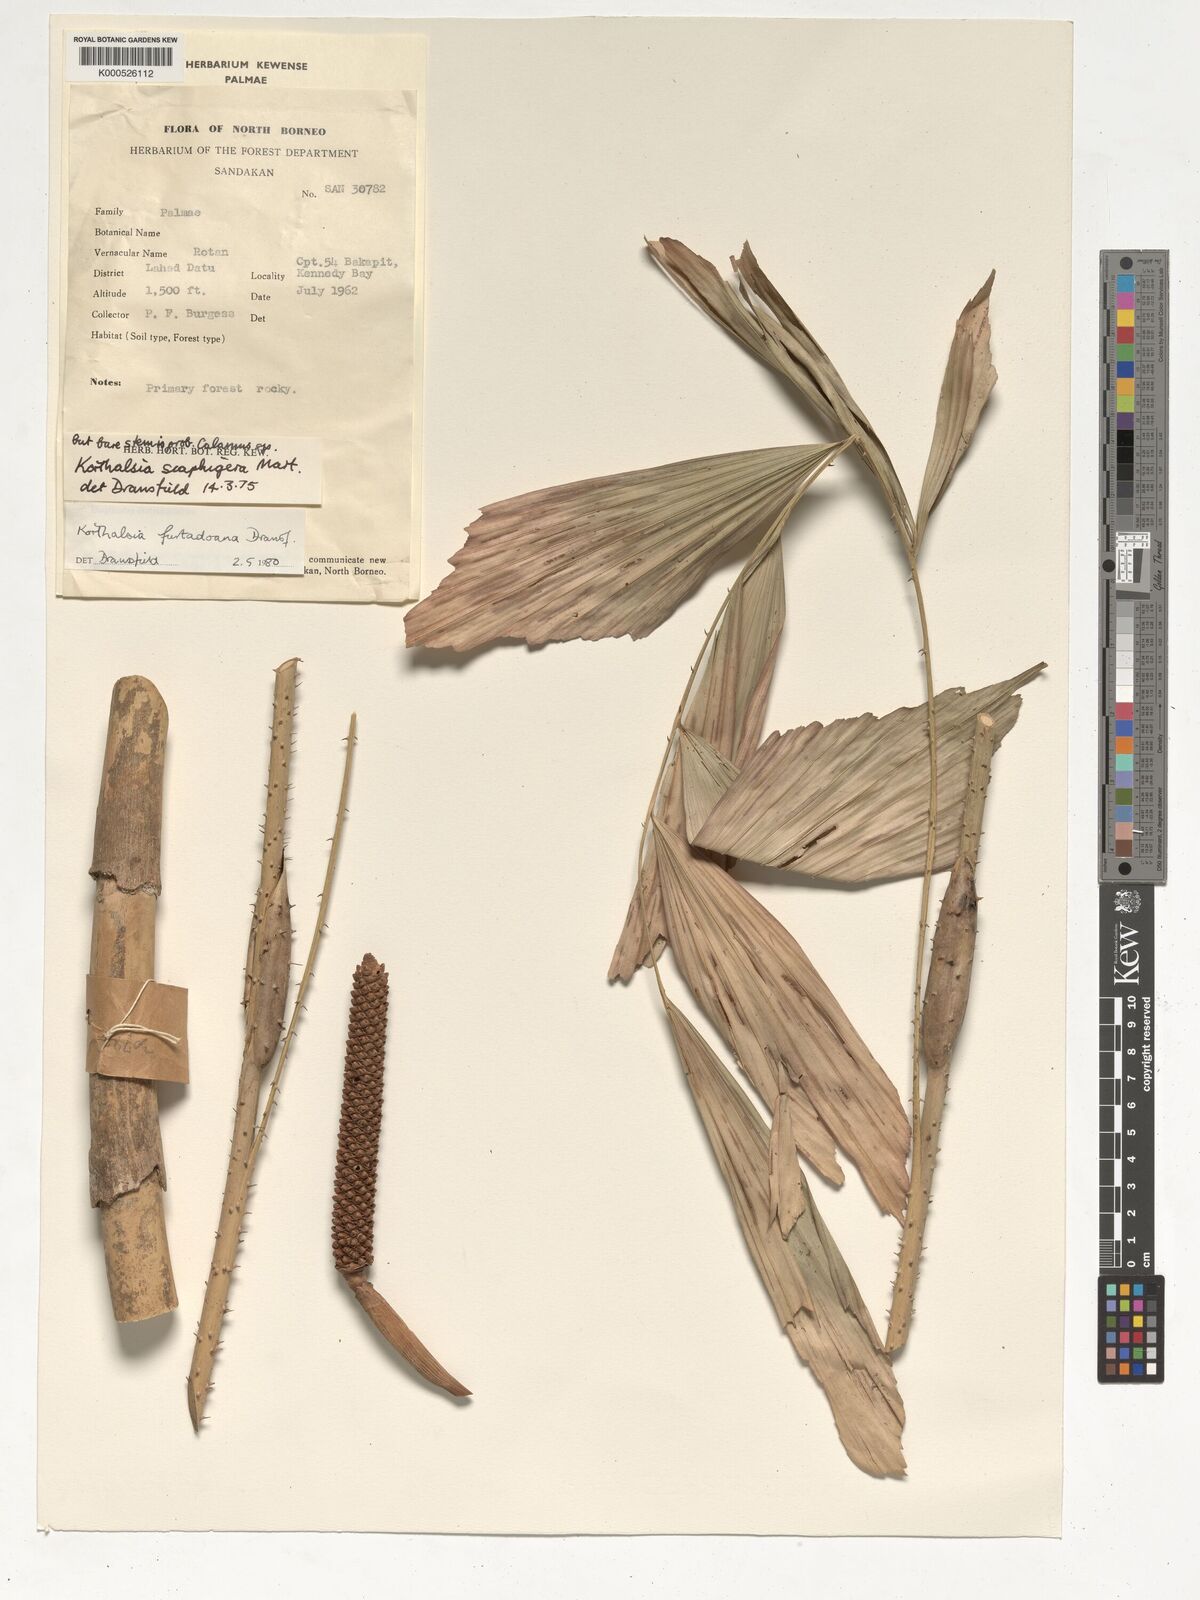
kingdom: Plantae
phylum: Tracheophyta
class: Liliopsida
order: Arecales
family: Arecaceae
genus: Korthalsia
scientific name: Korthalsia furtadoana
